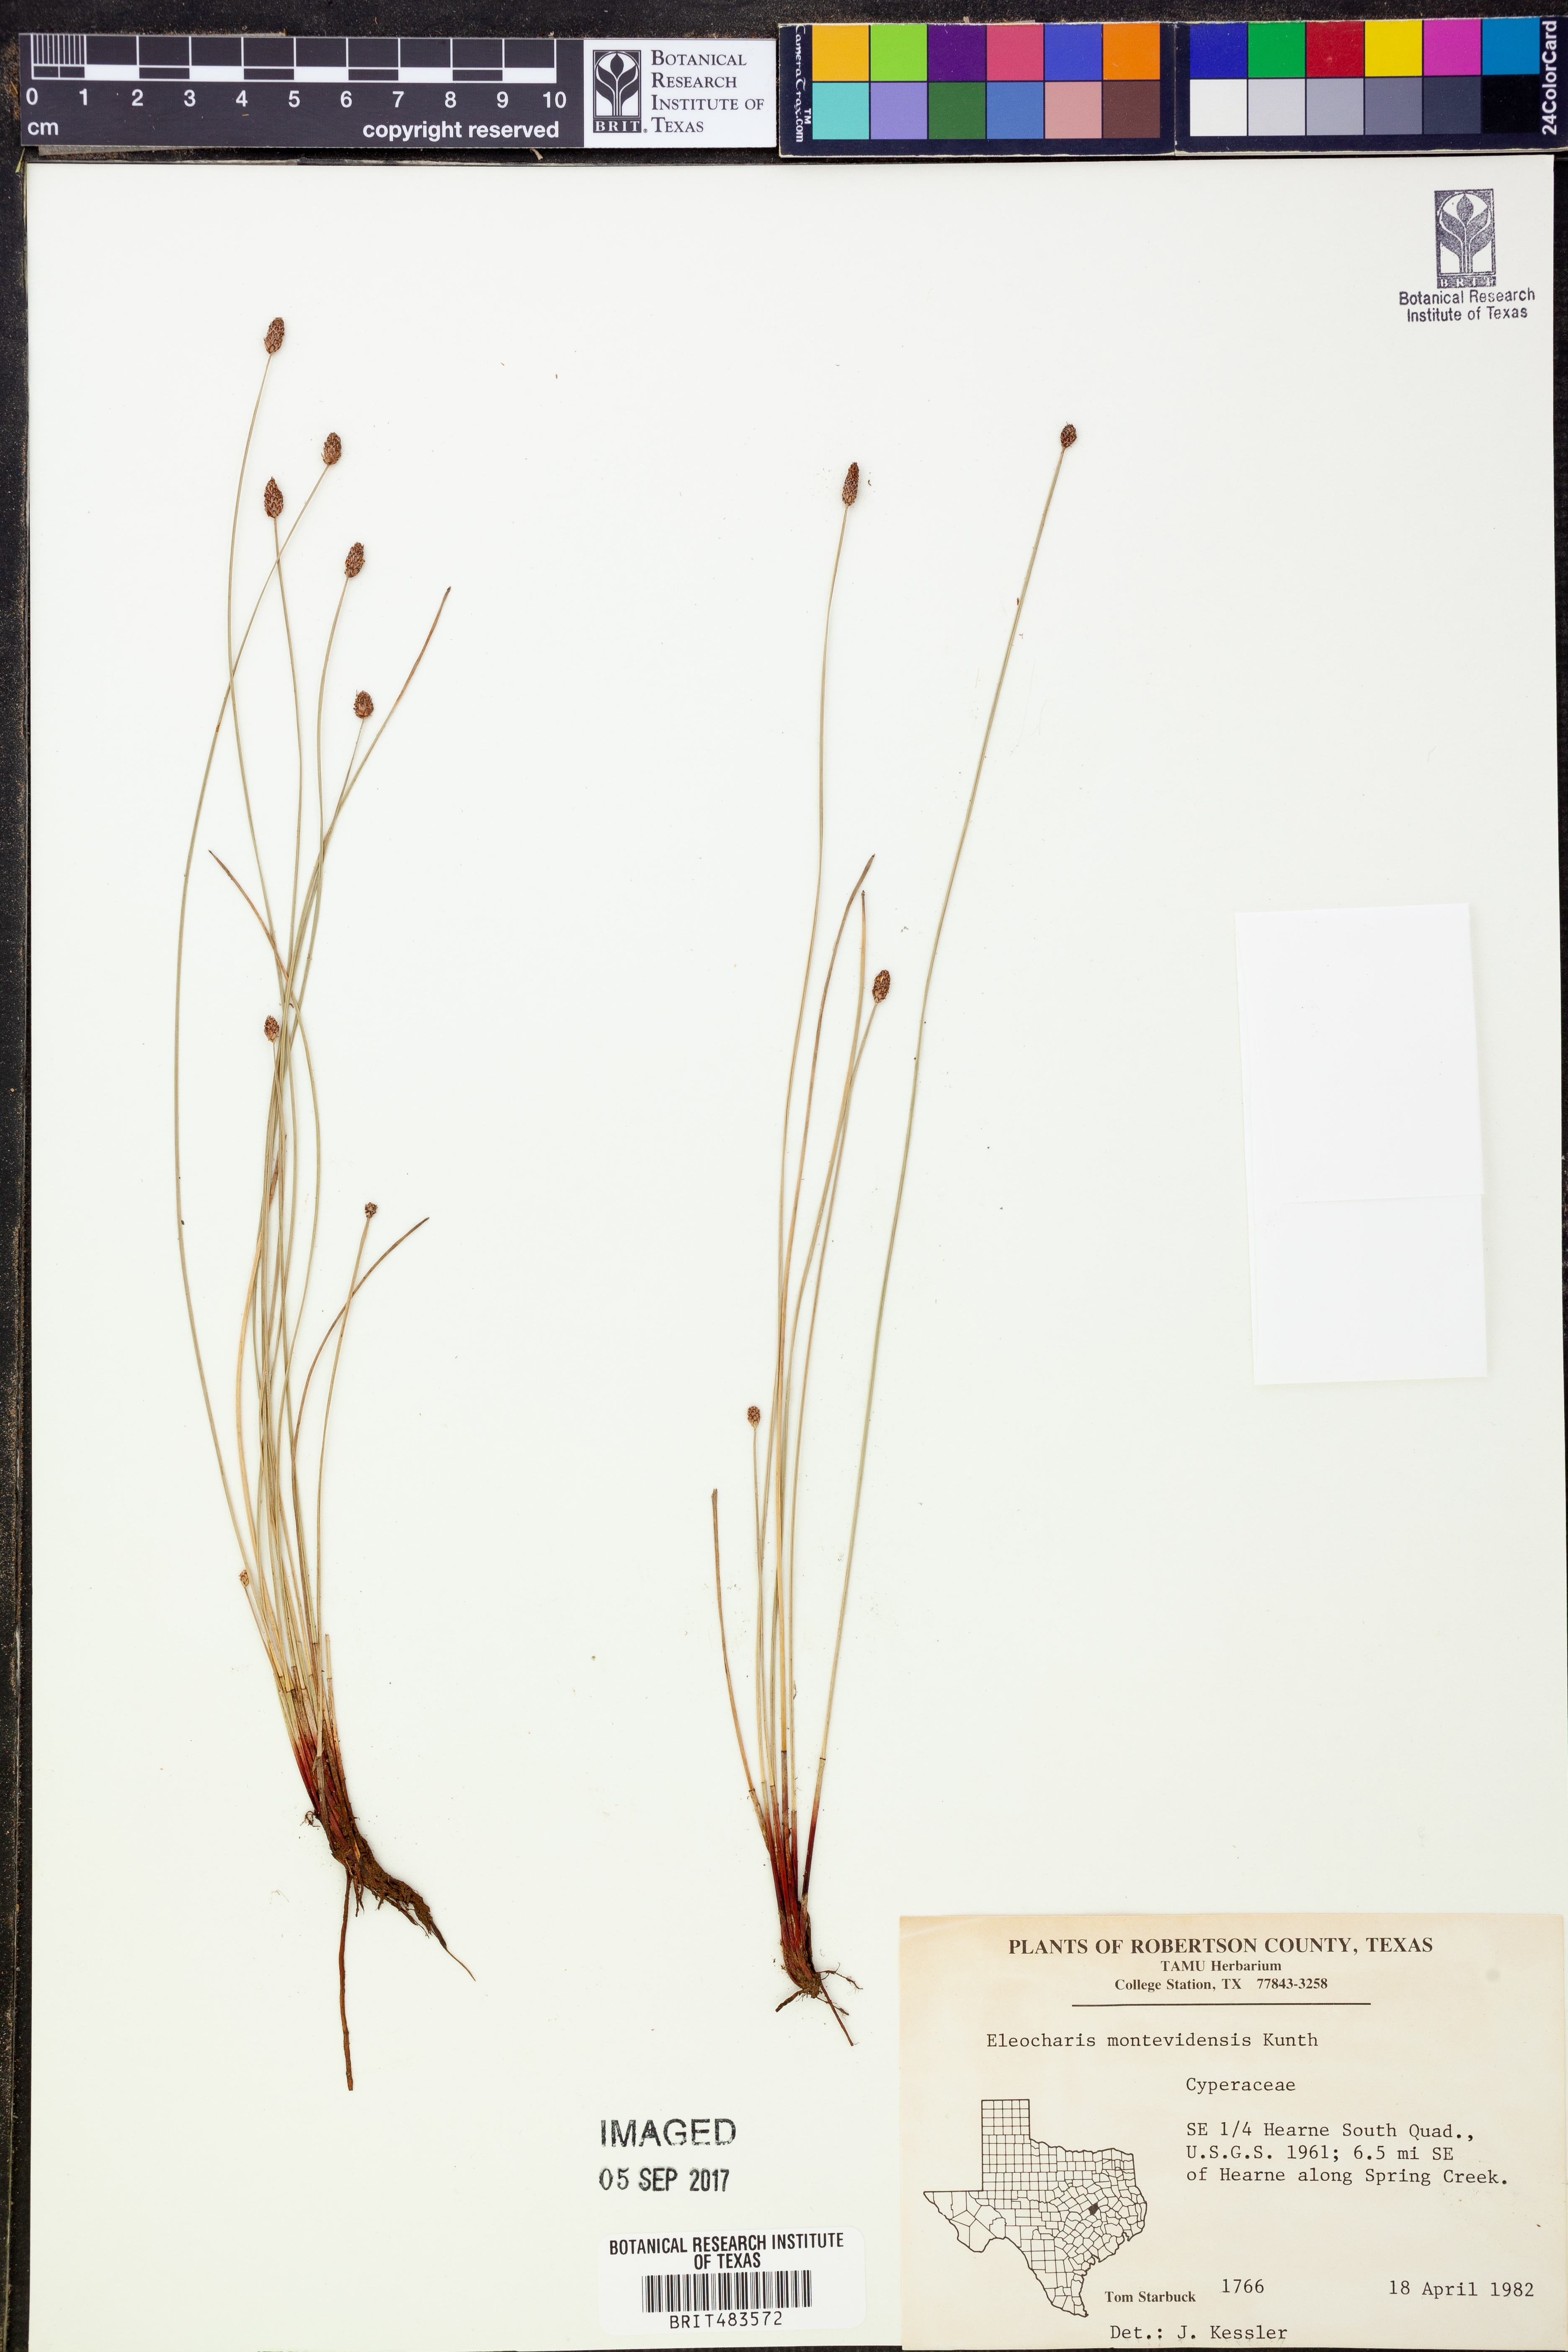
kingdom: Plantae
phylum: Tracheophyta
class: Liliopsida
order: Poales
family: Cyperaceae
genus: Eleocharis
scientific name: Eleocharis montevidensis
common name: Sand spike-rush
